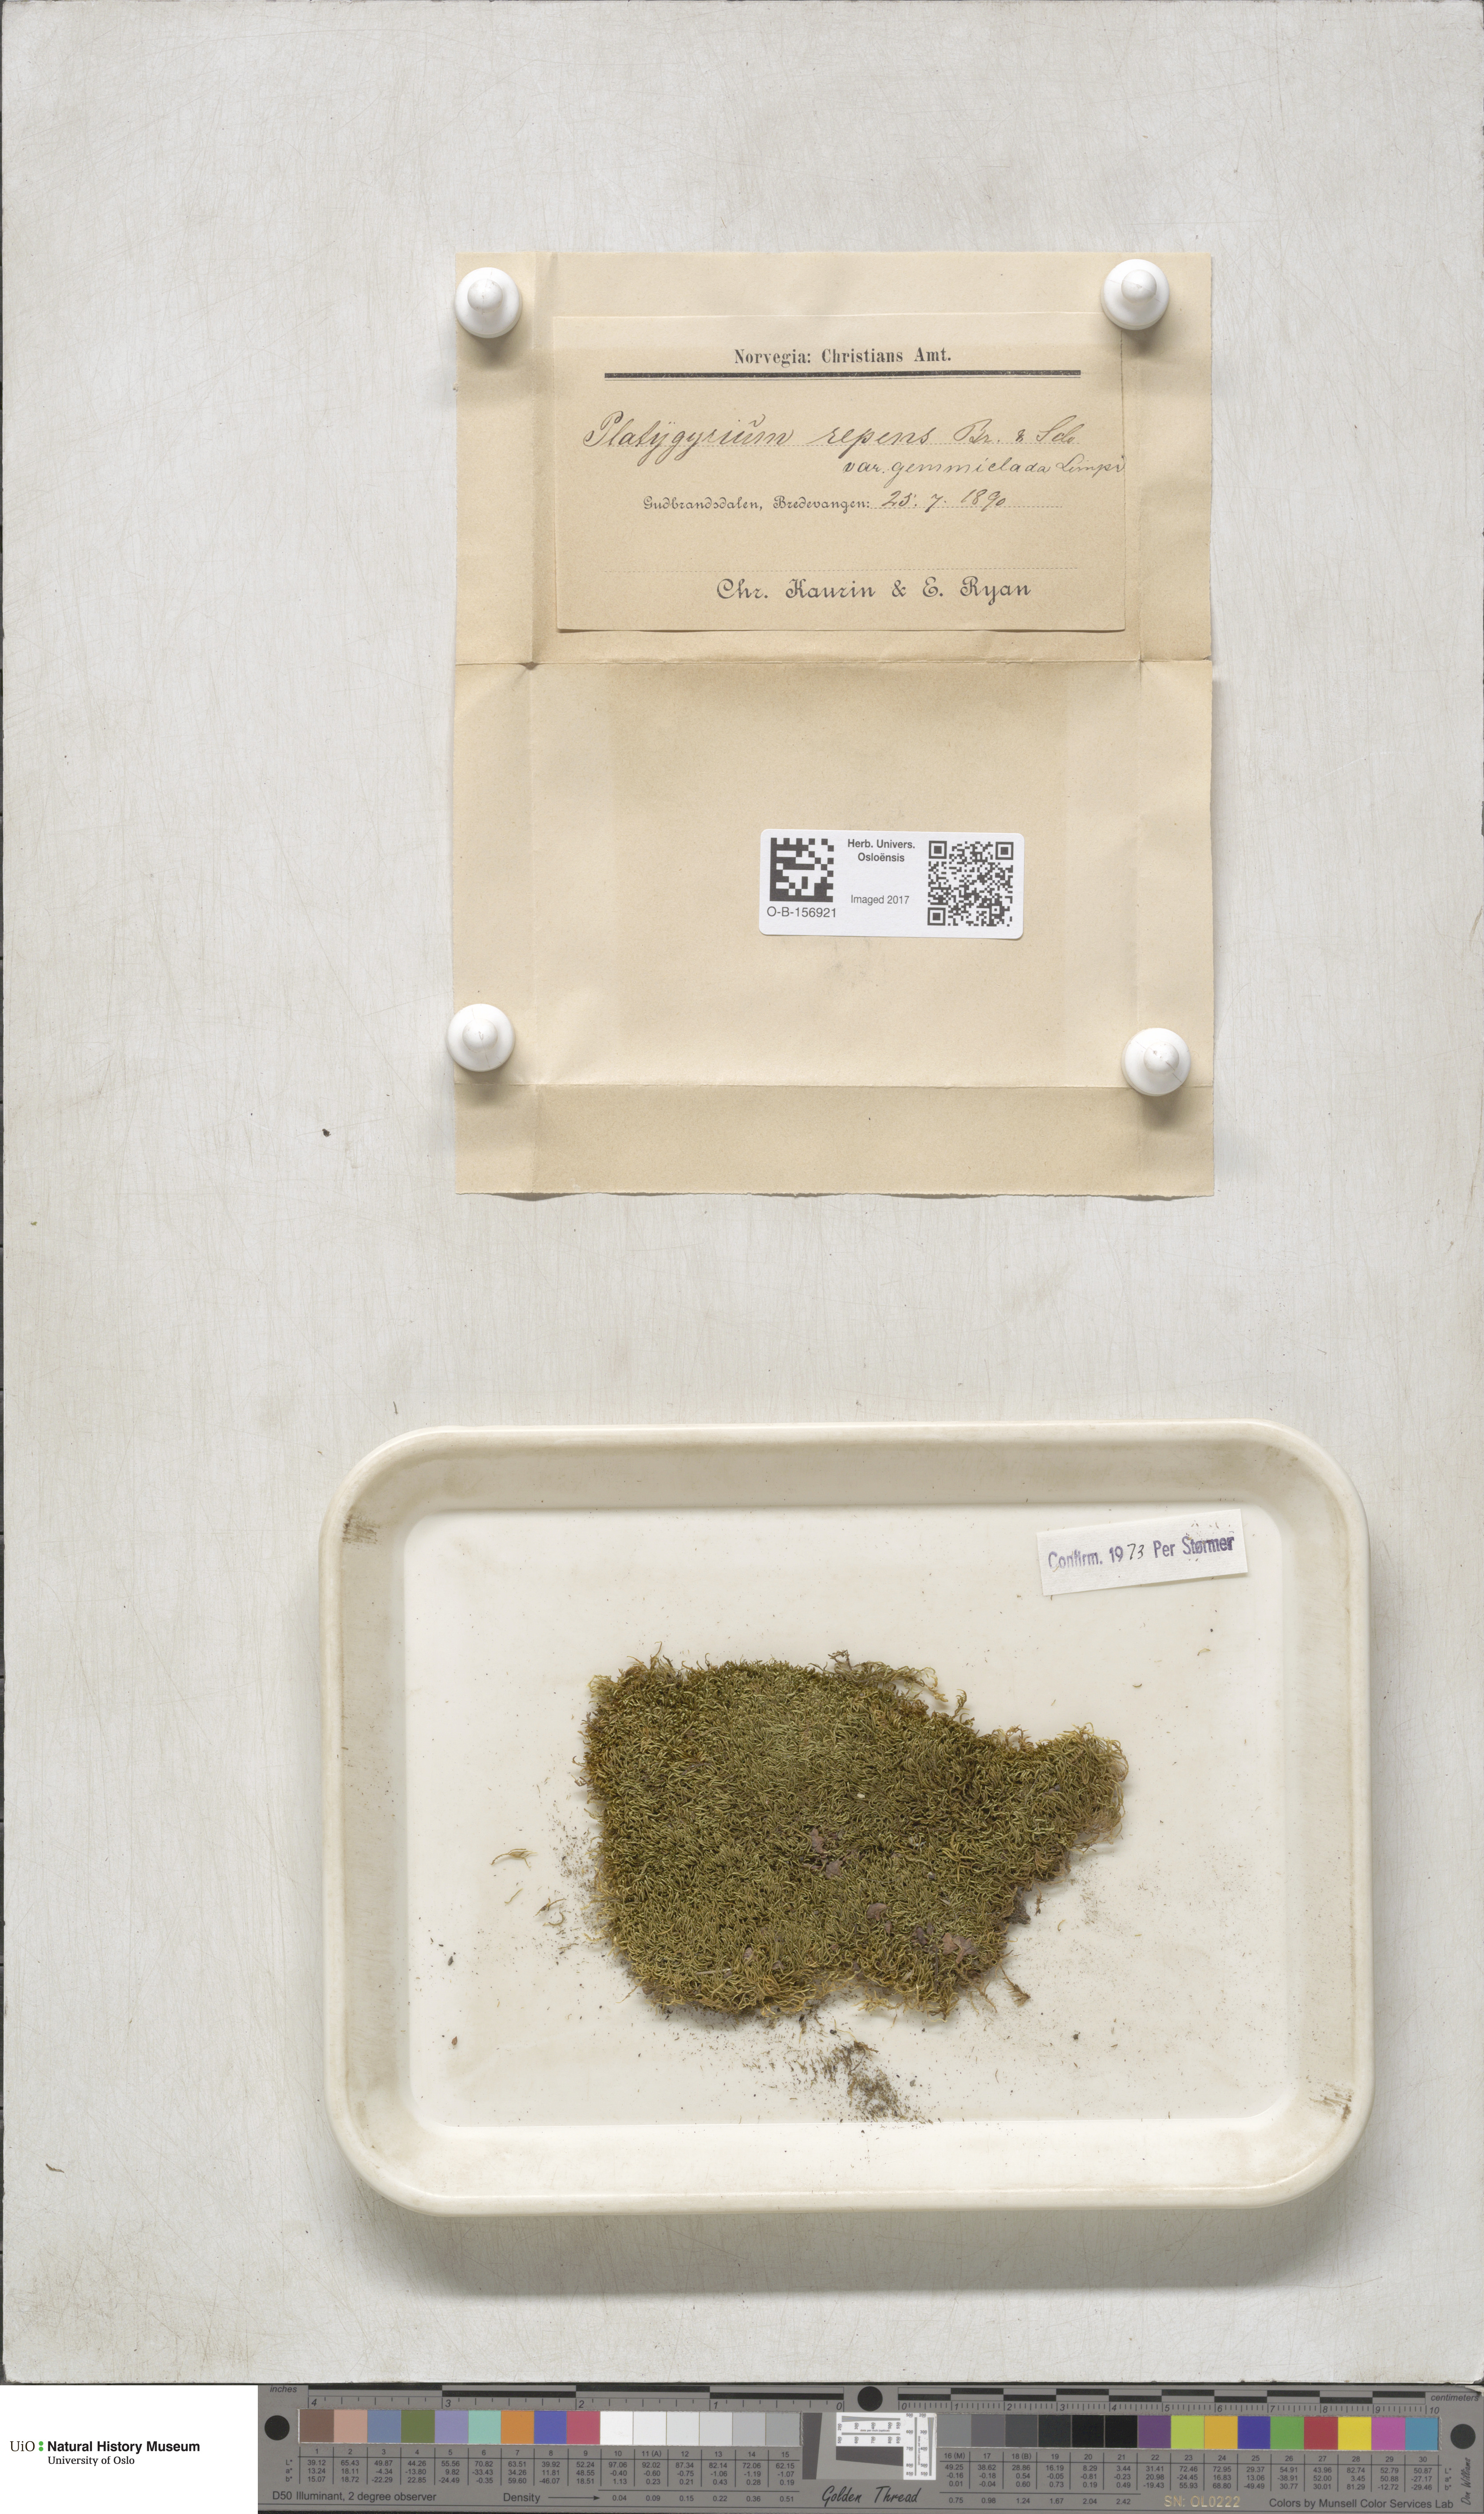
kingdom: Plantae
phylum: Bryophyta
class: Bryopsida
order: Hypnales
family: Pylaisiadelphaceae
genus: Platygyrium
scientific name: Platygyrium repens
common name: Flat-brocade moss
